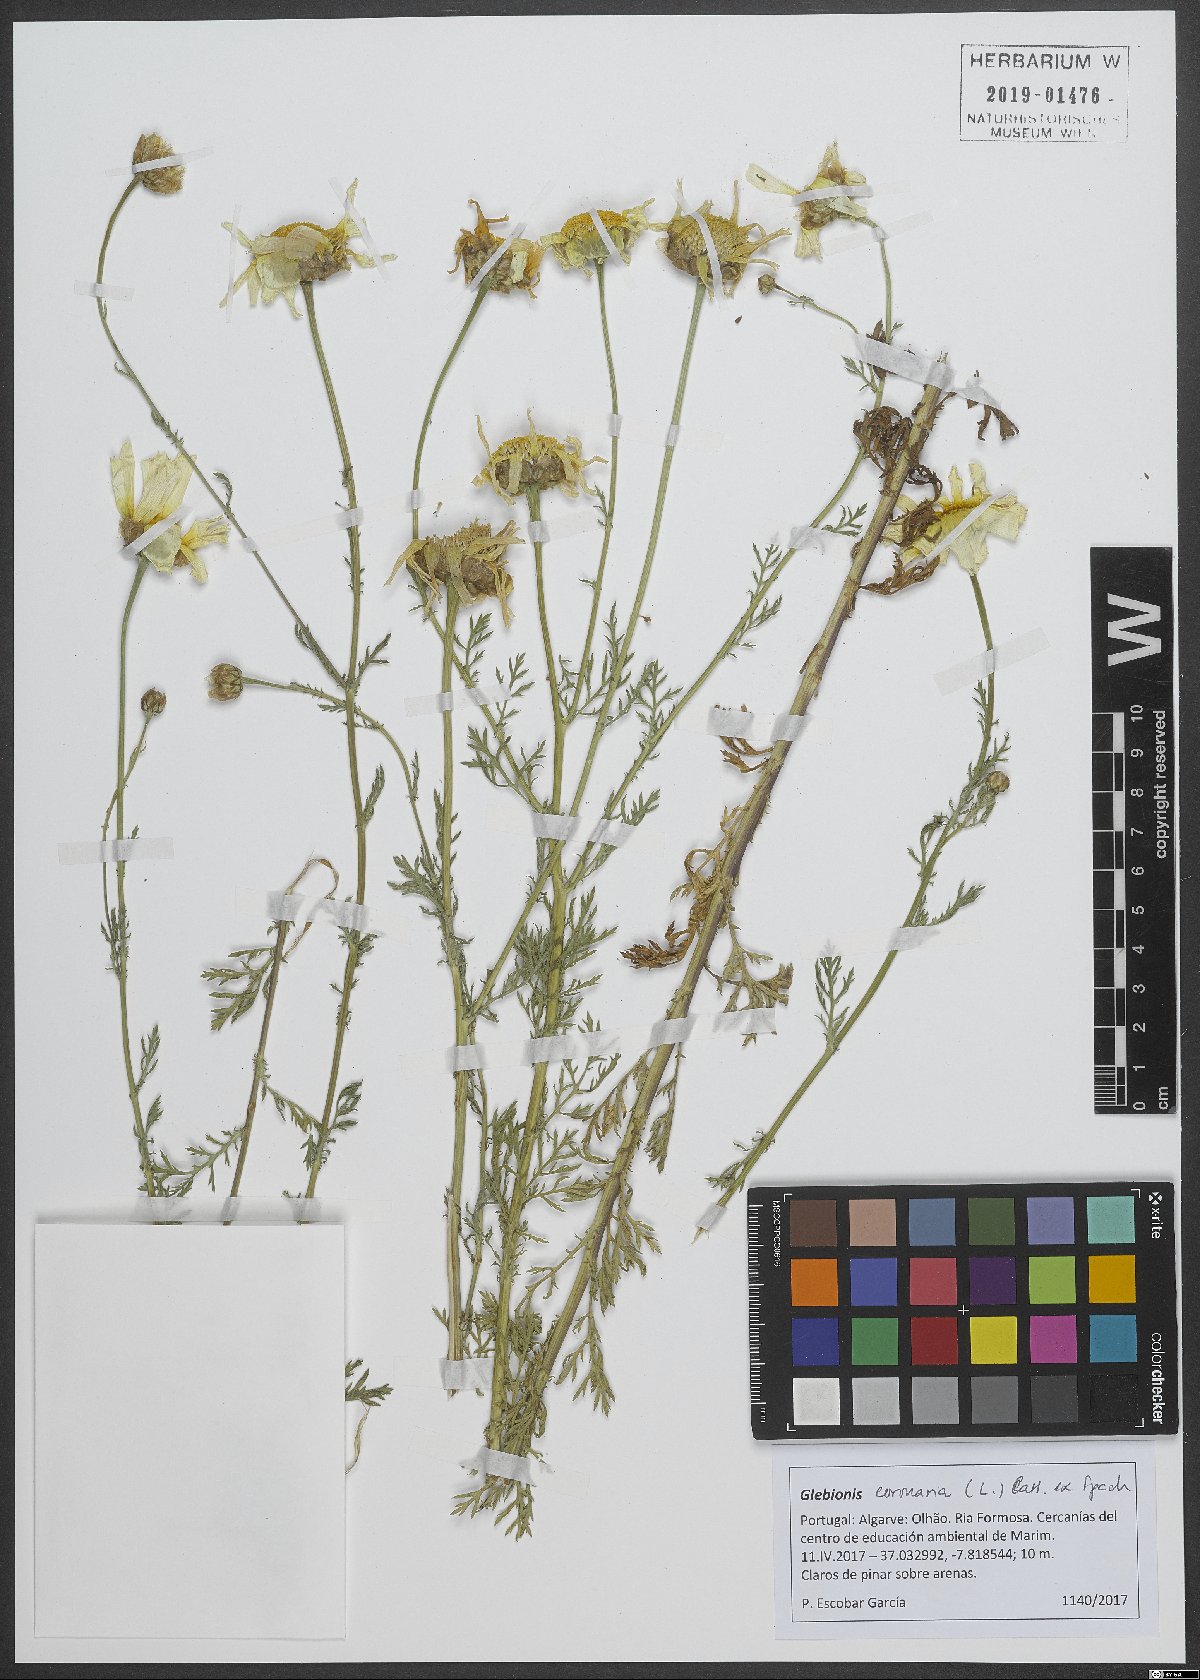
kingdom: Plantae
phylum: Tracheophyta
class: Magnoliopsida
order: Asterales
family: Asteraceae
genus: Glebionis
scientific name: Glebionis coronaria
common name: Crowndaisy
